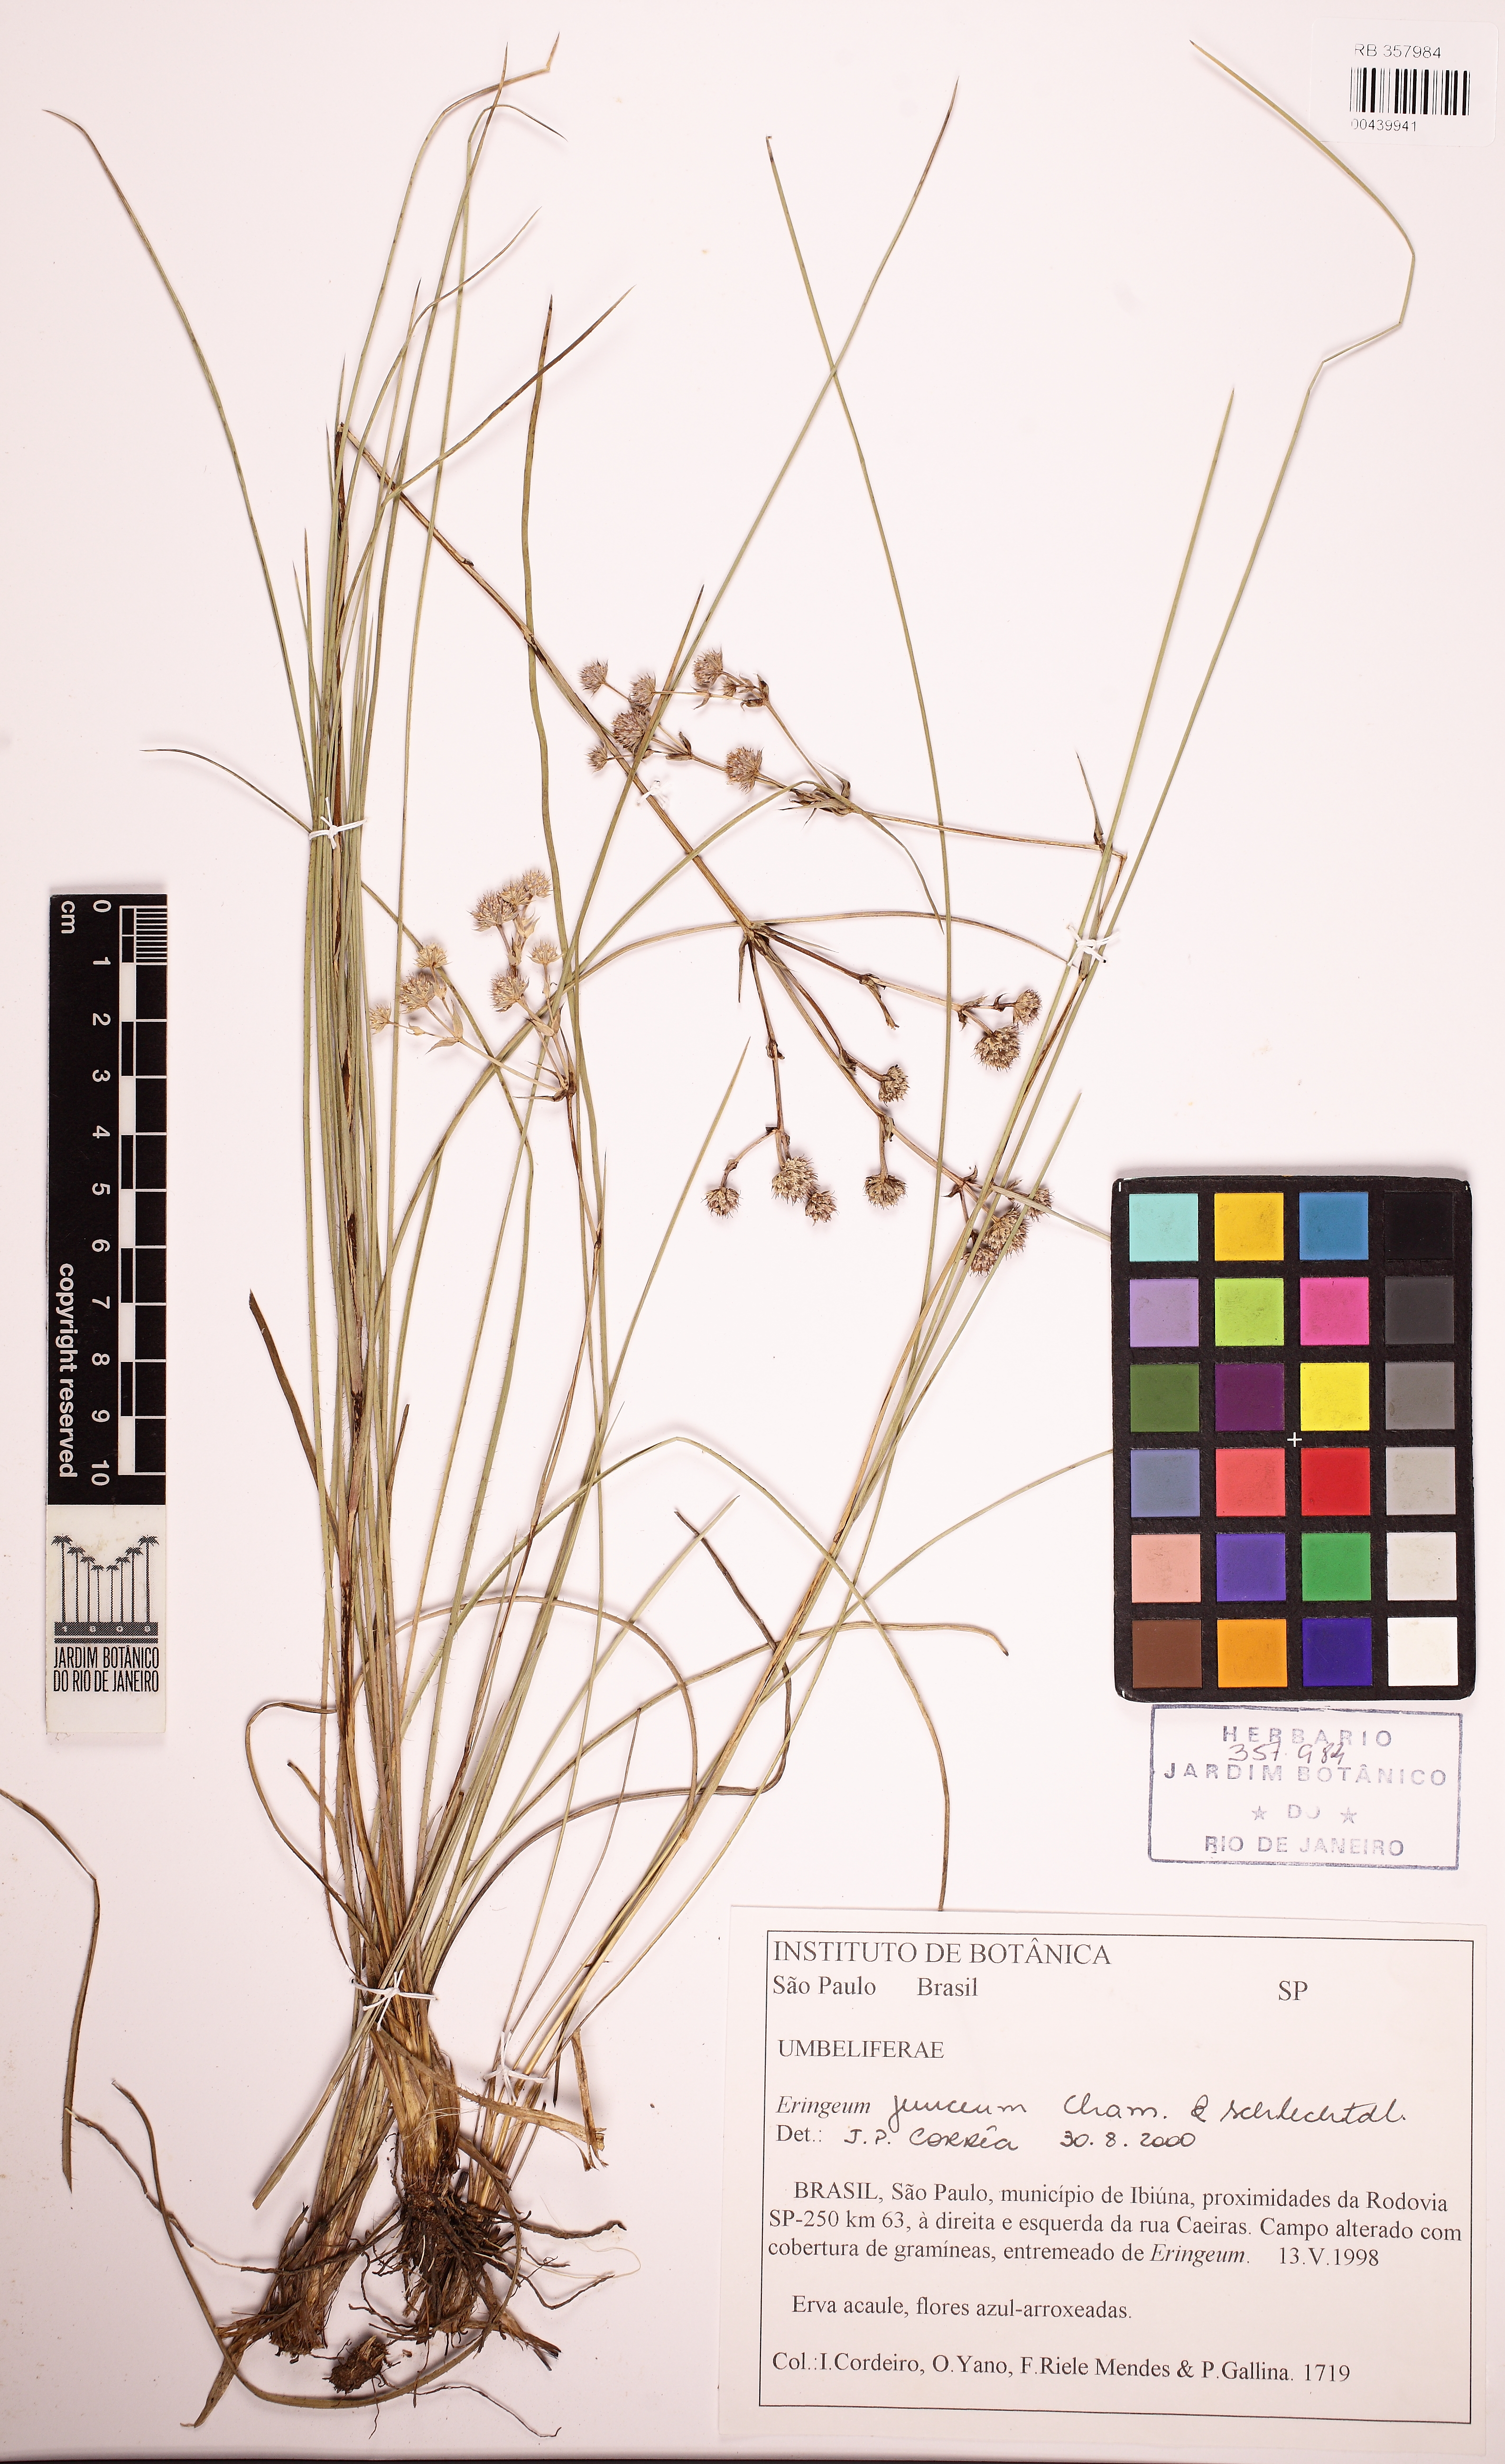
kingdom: Plantae
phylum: Tracheophyta
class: Magnoliopsida
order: Apiales
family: Apiaceae
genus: Eryngium
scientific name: Eryngium junceum
